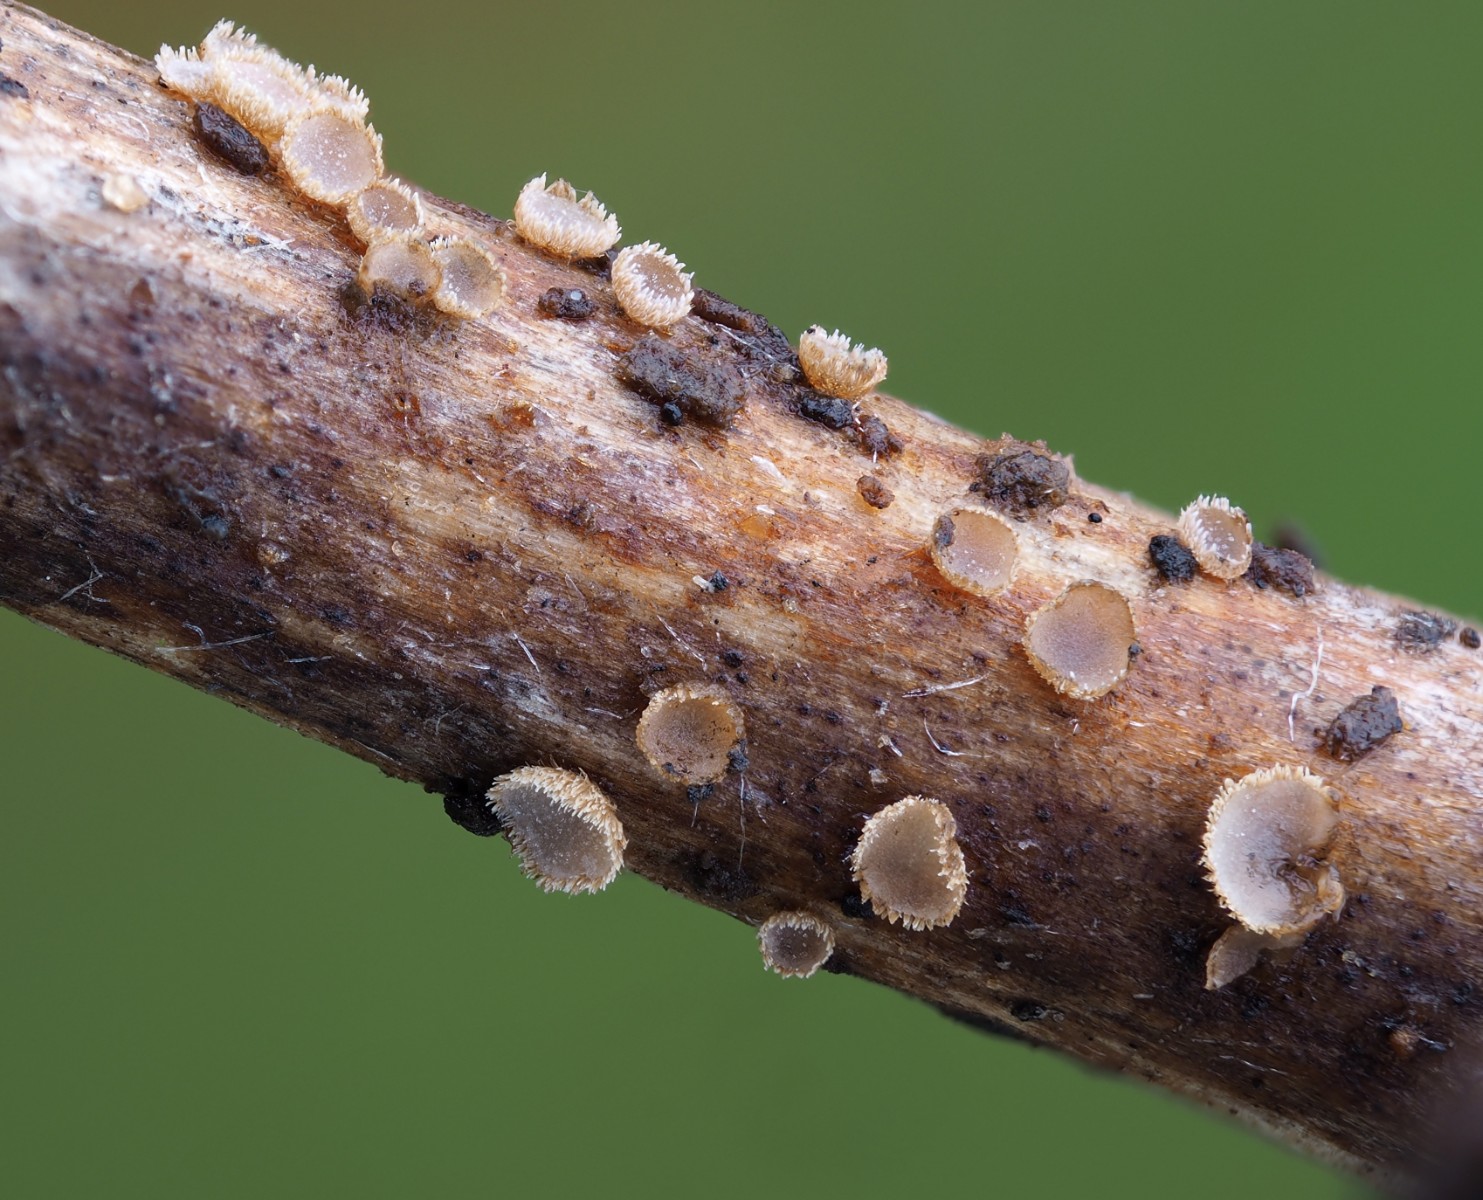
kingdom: Fungi
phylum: Basidiomycota
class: Agaricomycetes
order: Agaricales
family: Niaceae
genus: Merismodes
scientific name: Merismodes
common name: urte-læderskål
